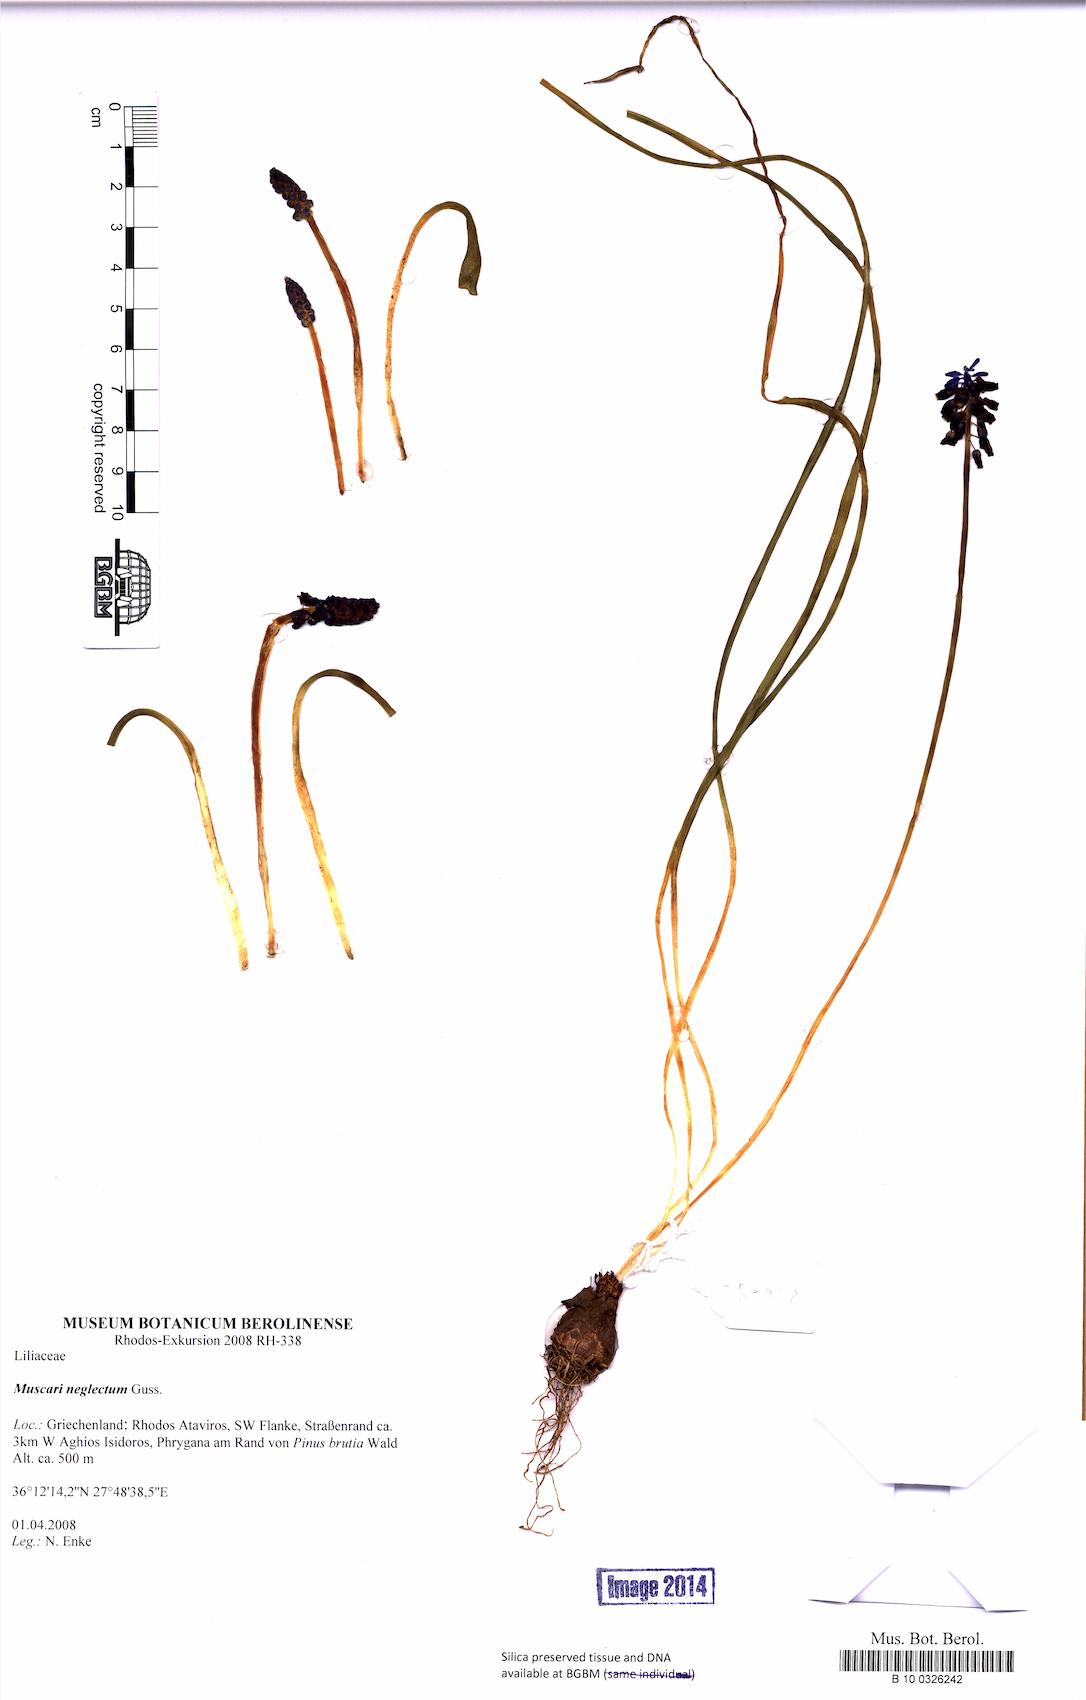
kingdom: Plantae
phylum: Tracheophyta
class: Liliopsida
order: Asparagales
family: Asparagaceae
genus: Muscari
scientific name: Muscari neglectum
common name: Grape-hyacinth
